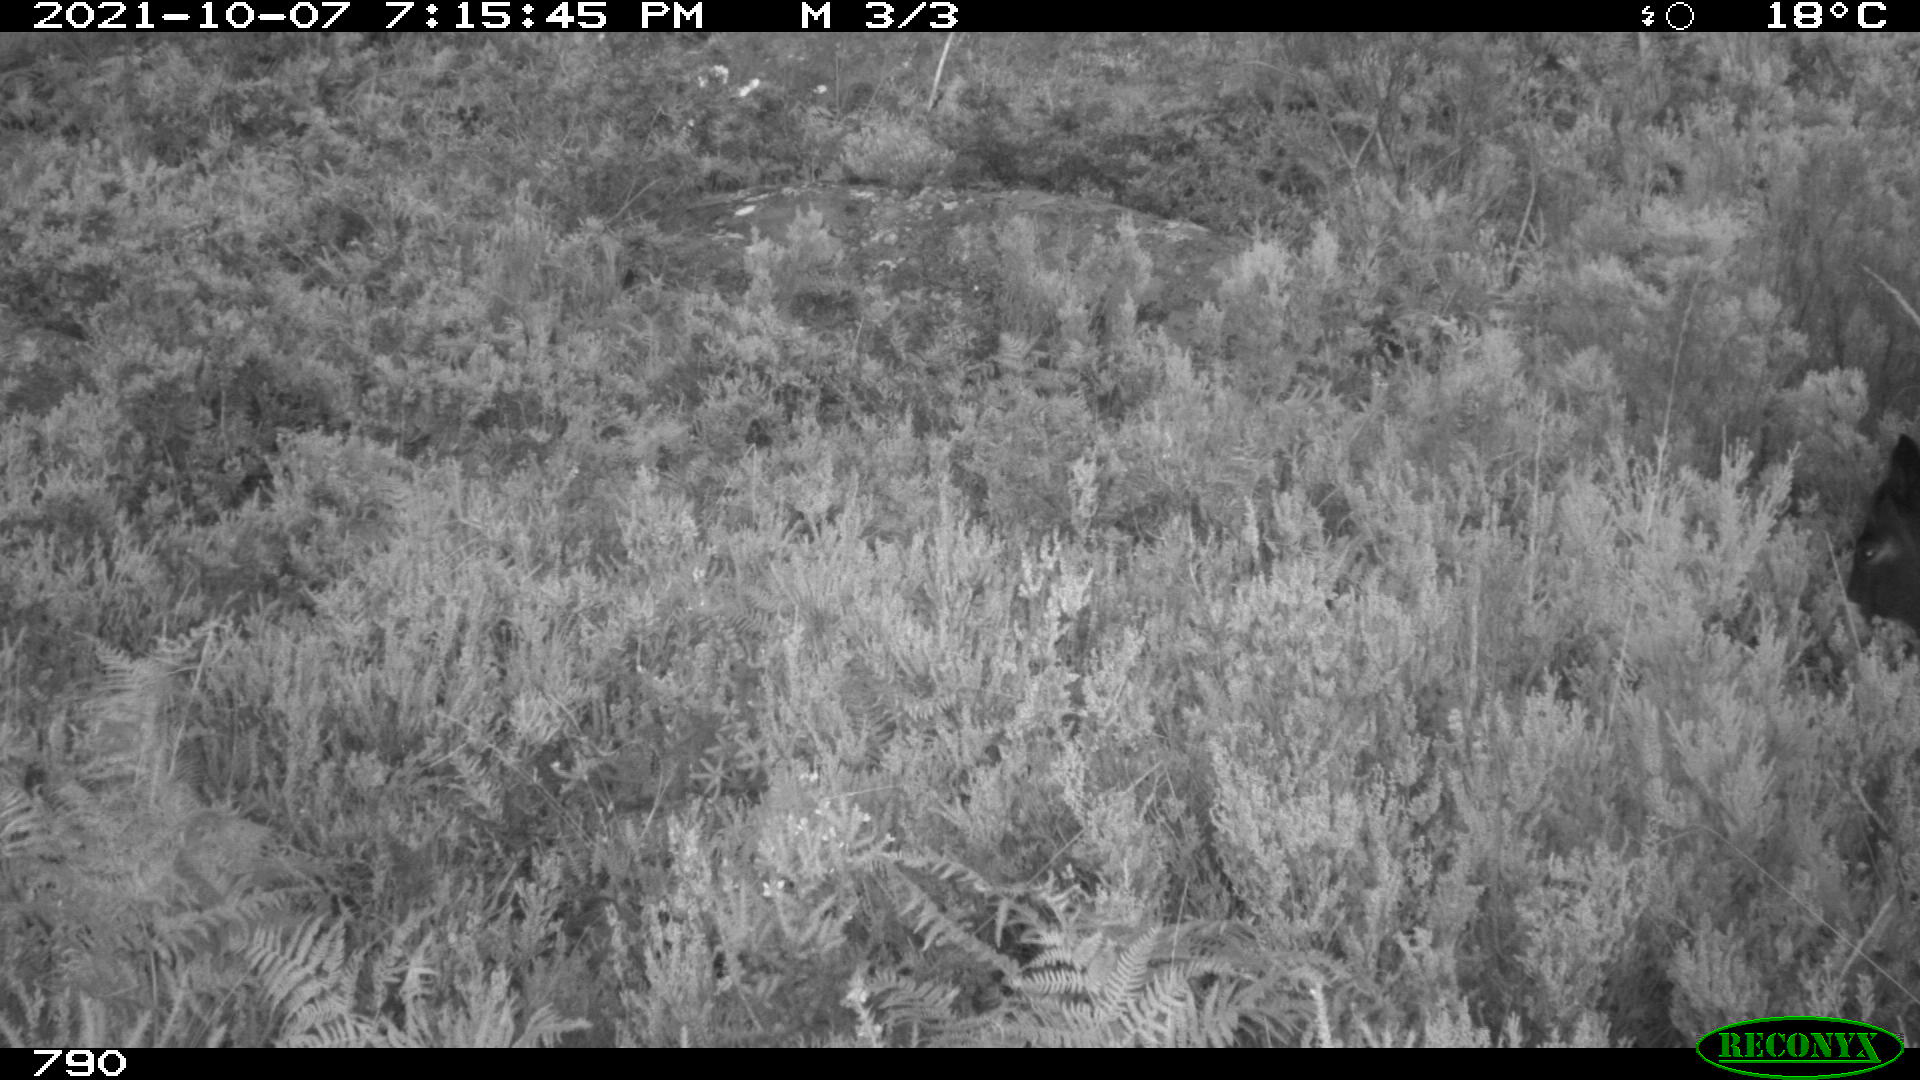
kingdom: Animalia
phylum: Chordata
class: Mammalia
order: Perissodactyla
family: Equidae
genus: Equus
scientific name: Equus caballus
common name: Horse
